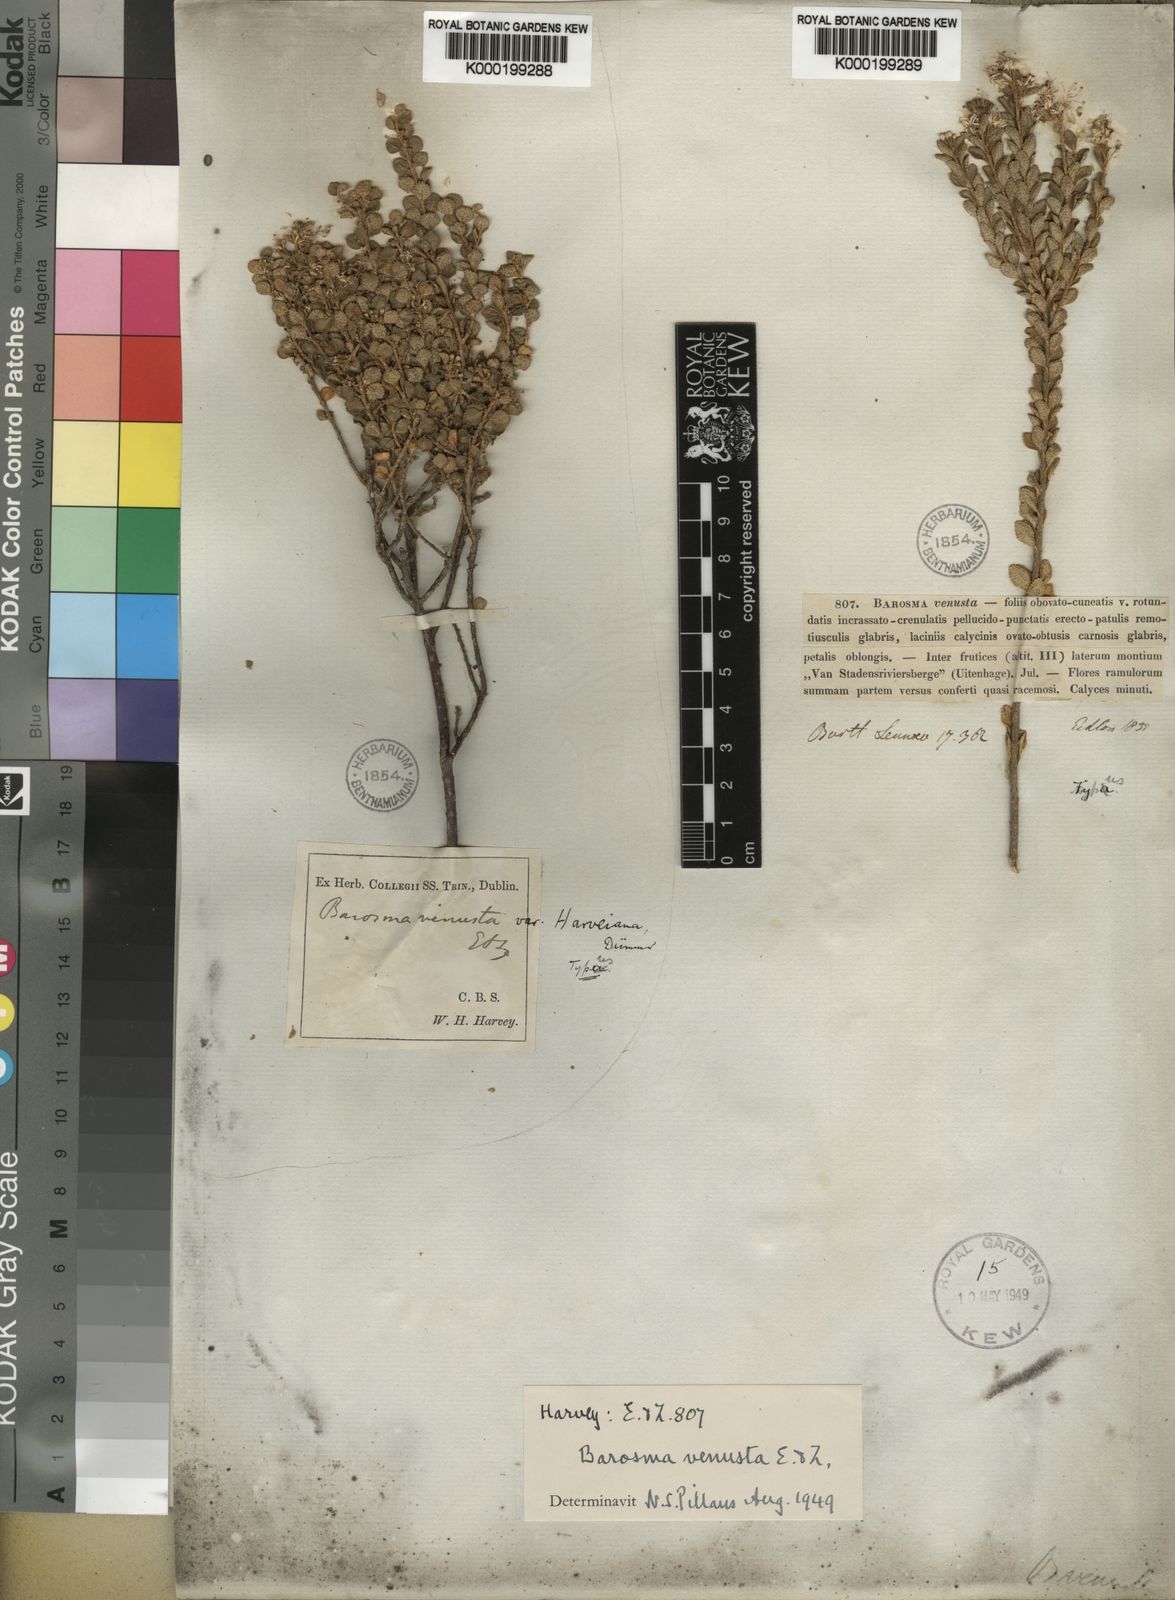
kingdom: Plantae
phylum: Tracheophyta
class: Magnoliopsida
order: Sapindales
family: Rutaceae
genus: Agathosma
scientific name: Agathosma venusta
